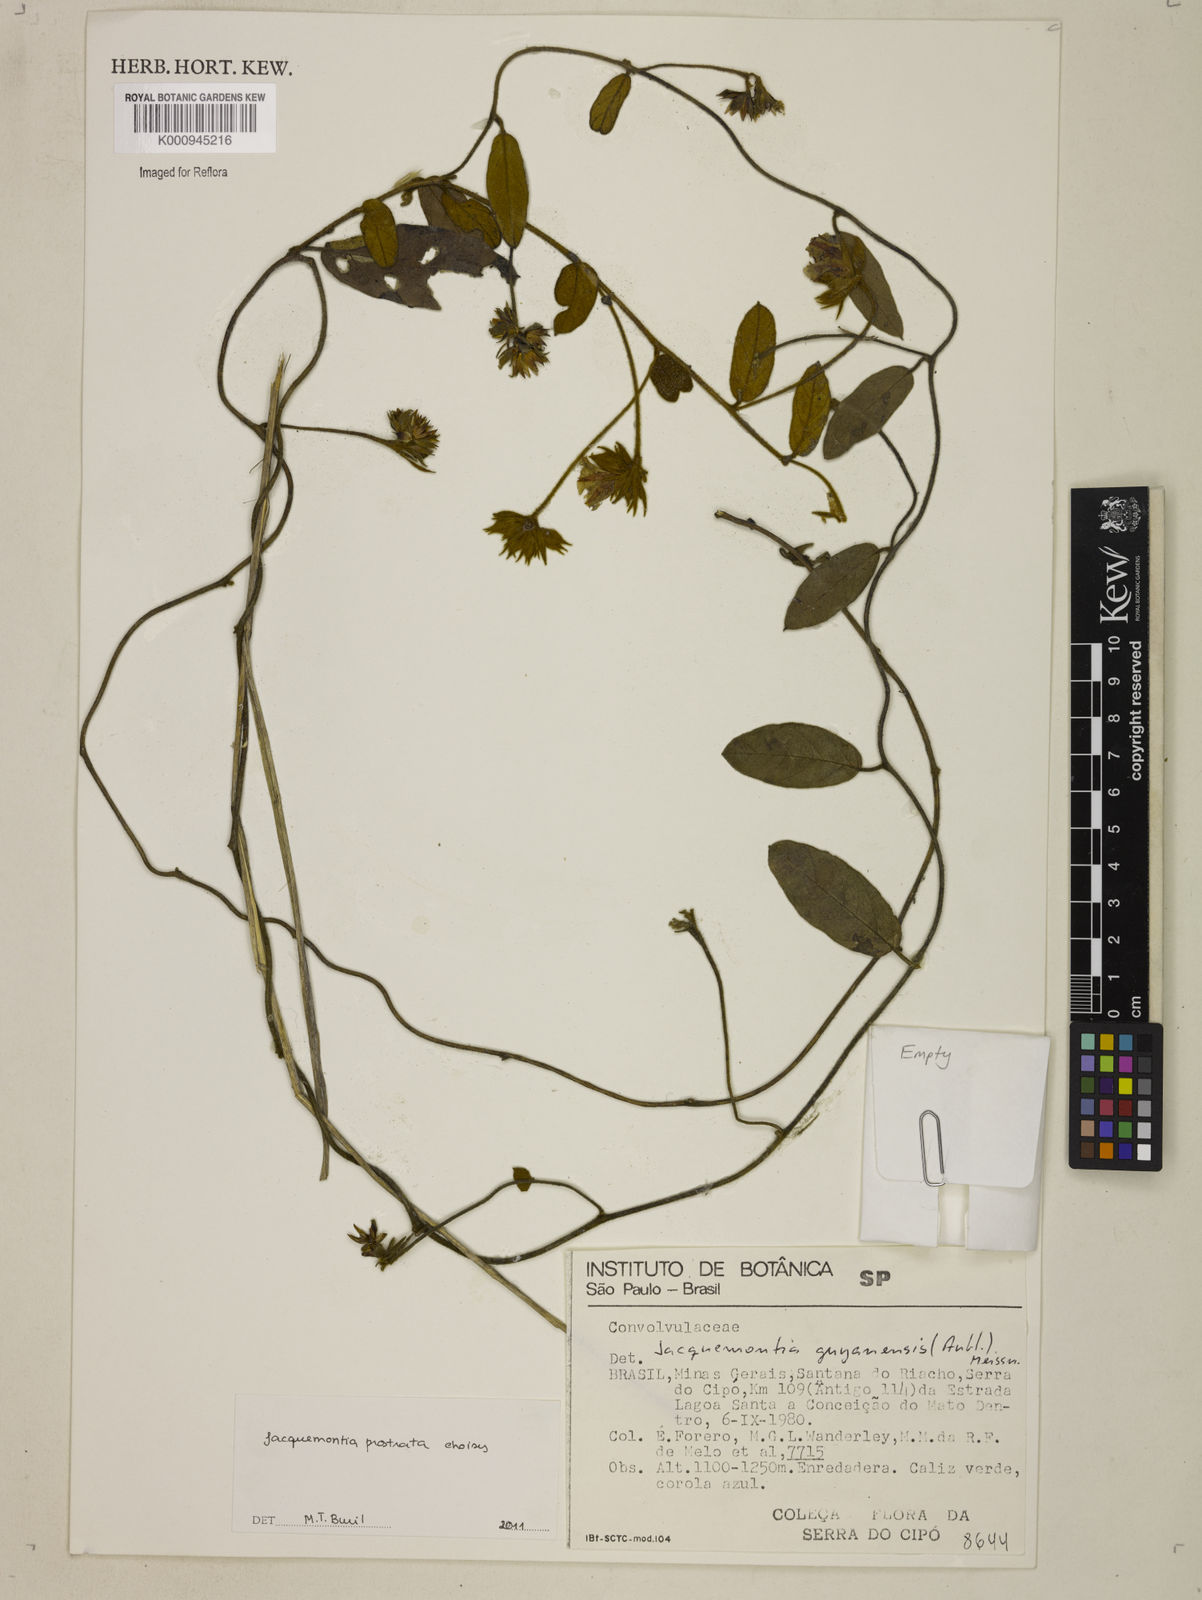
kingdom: Plantae
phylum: Tracheophyta
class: Magnoliopsida
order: Solanales
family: Convolvulaceae
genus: Jacquemontia
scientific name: Jacquemontia prostrata
